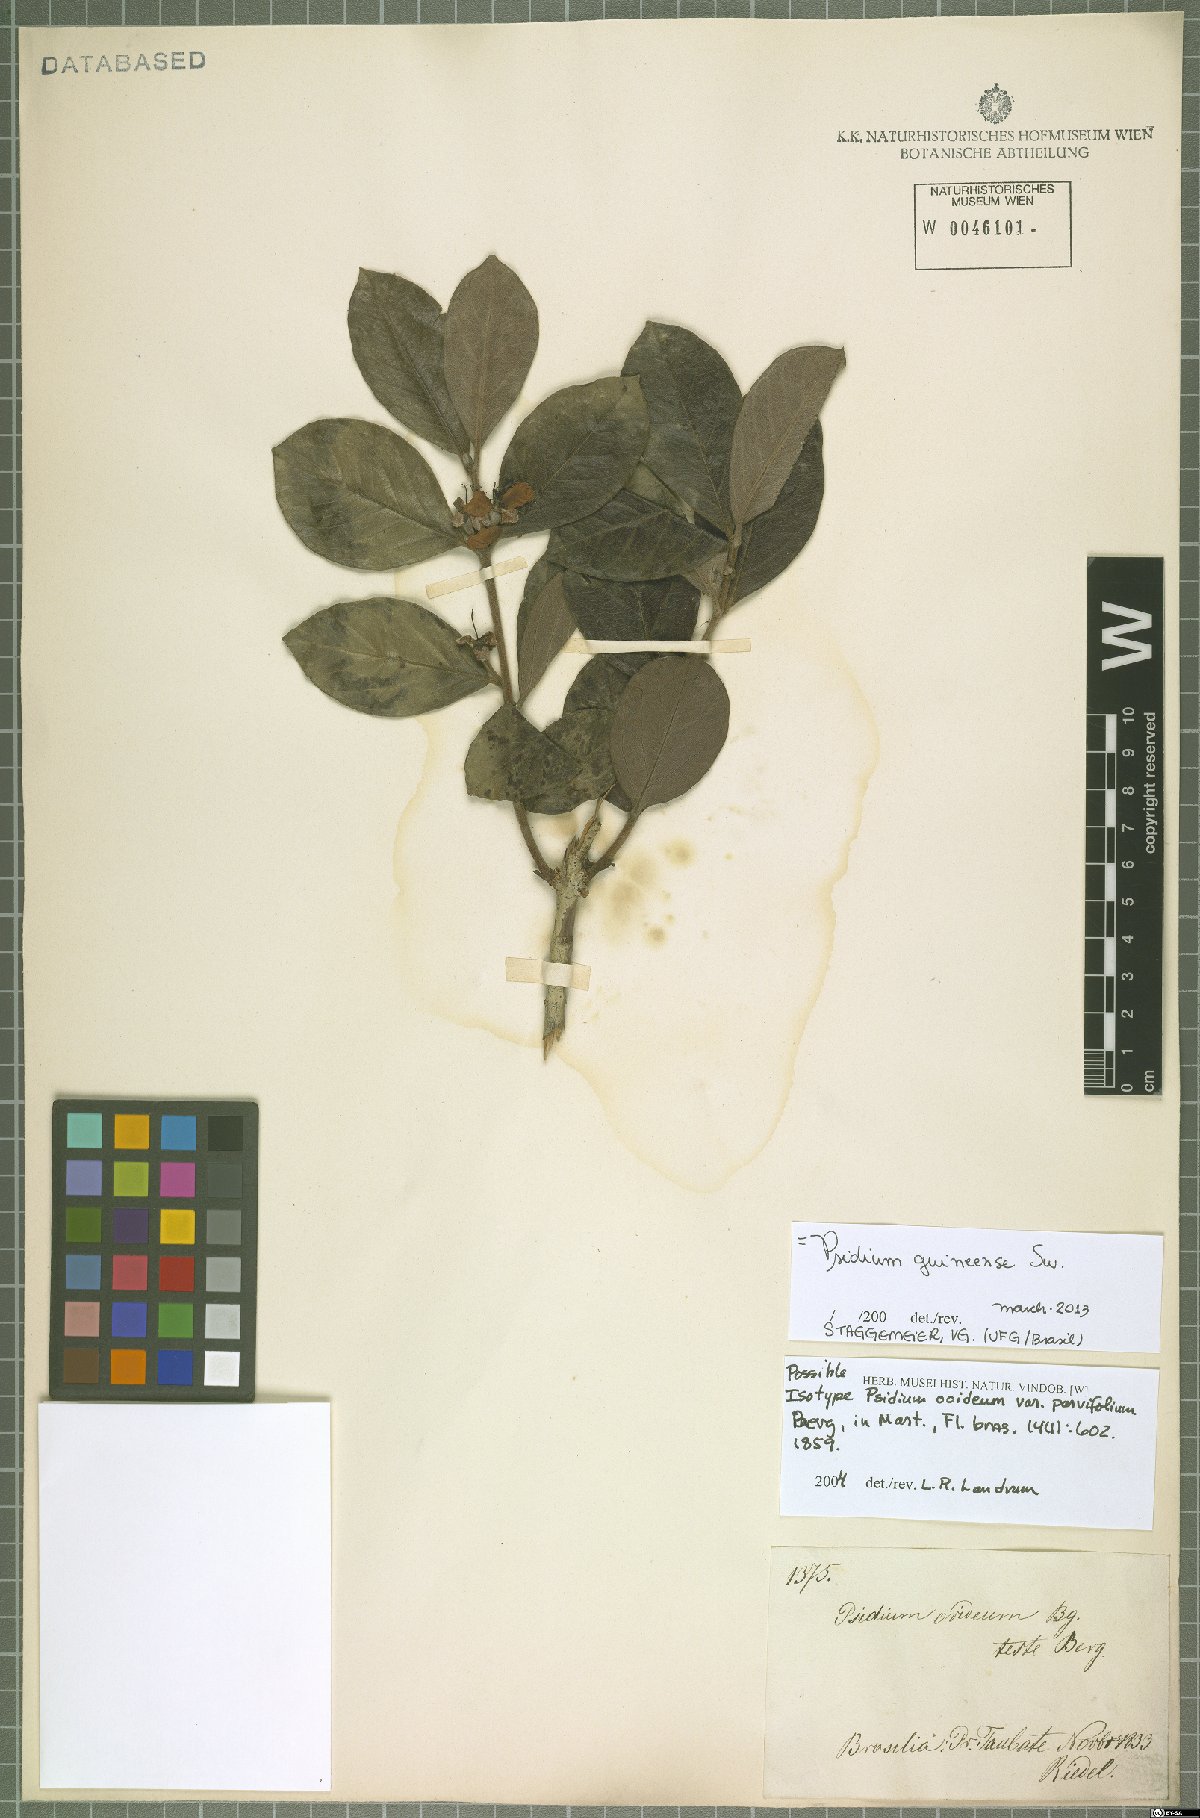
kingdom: Plantae
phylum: Tracheophyta
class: Magnoliopsida
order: Myrtales
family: Myrtaceae
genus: Psidium
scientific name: Psidium guineense
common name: Brazilian guava
